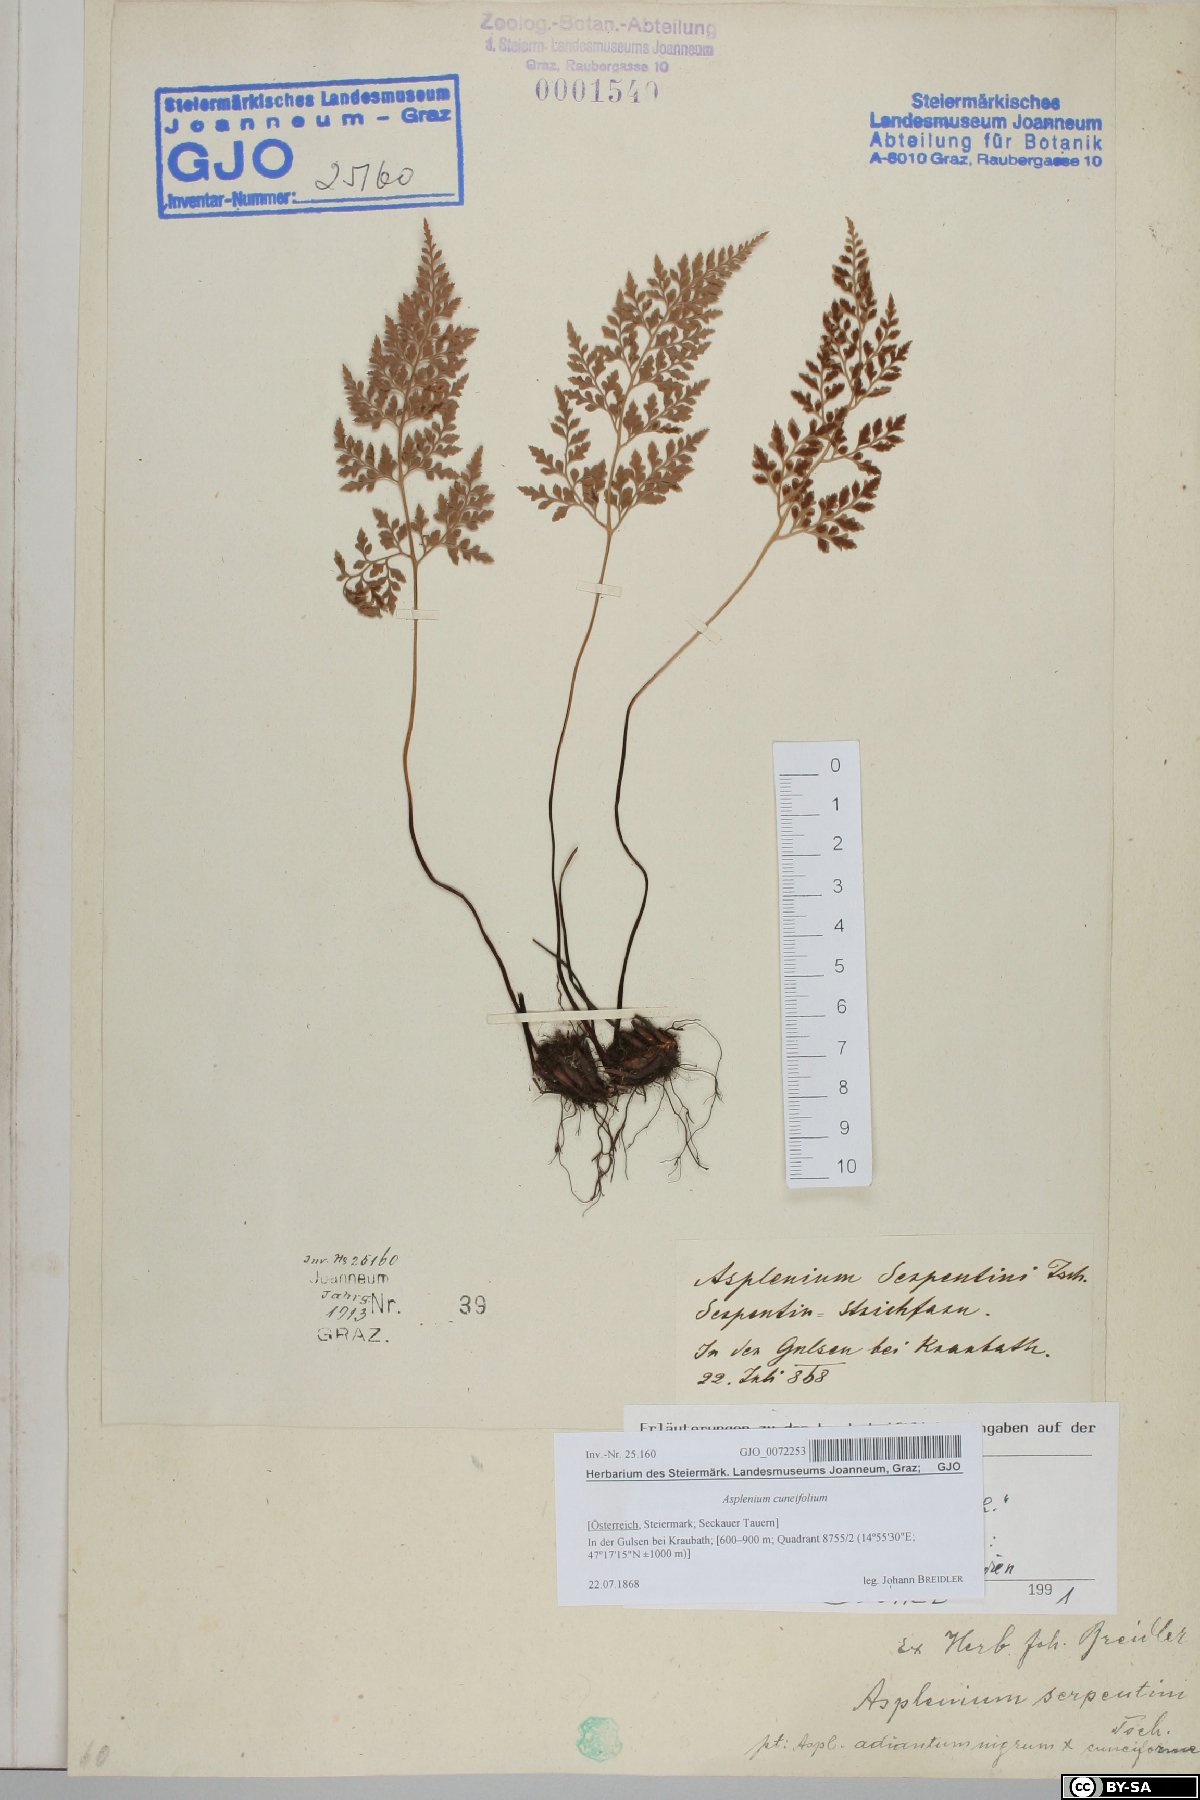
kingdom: Plantae
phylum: Tracheophyta
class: Polypodiopsida
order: Polypodiales
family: Aspleniaceae
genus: Asplenium
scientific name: Asplenium cuneifolium
